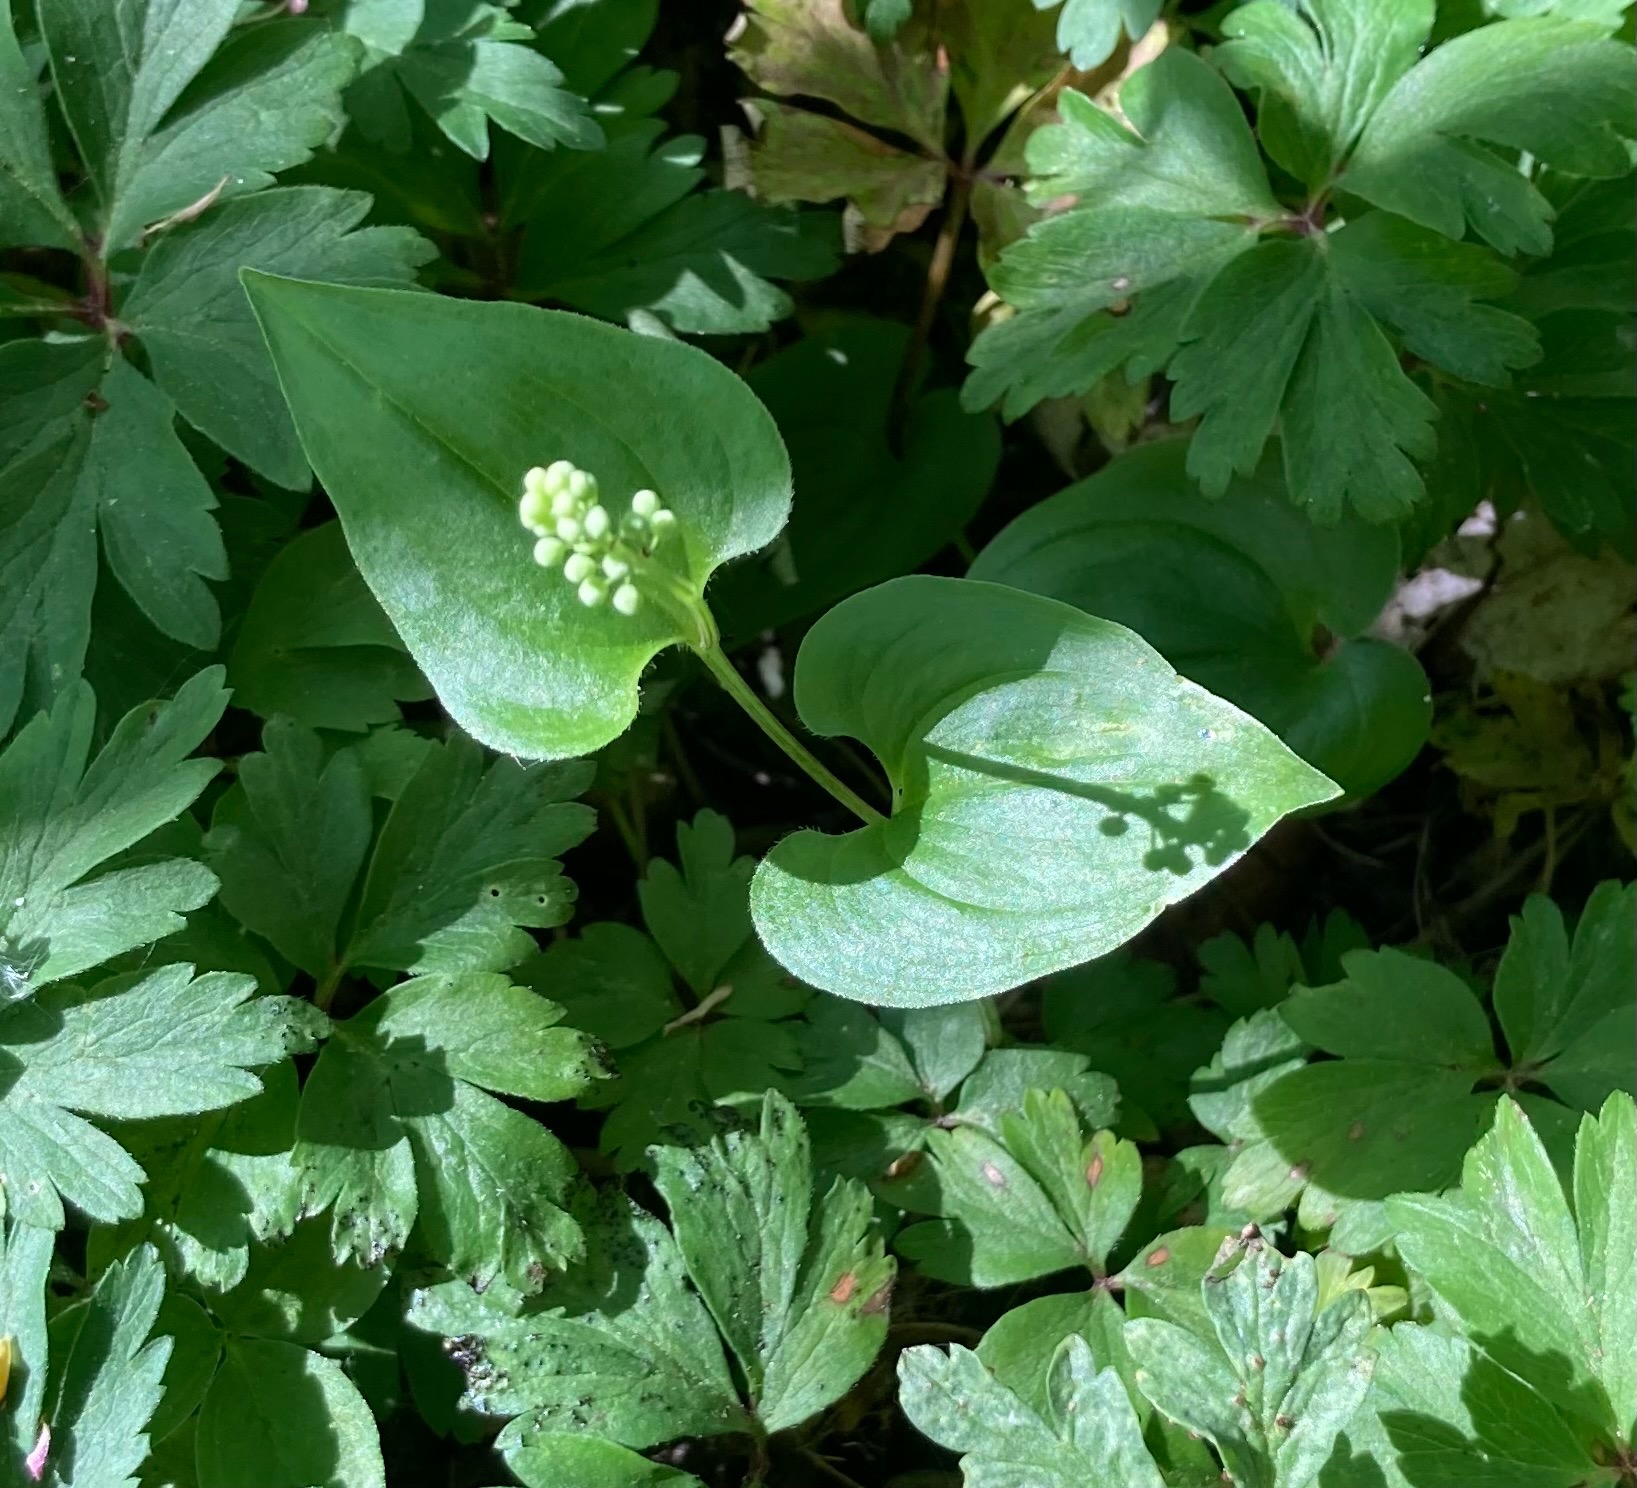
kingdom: Plantae
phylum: Tracheophyta
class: Liliopsida
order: Asparagales
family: Asparagaceae
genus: Maianthemum
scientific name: Maianthemum bifolium
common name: Majblomst
